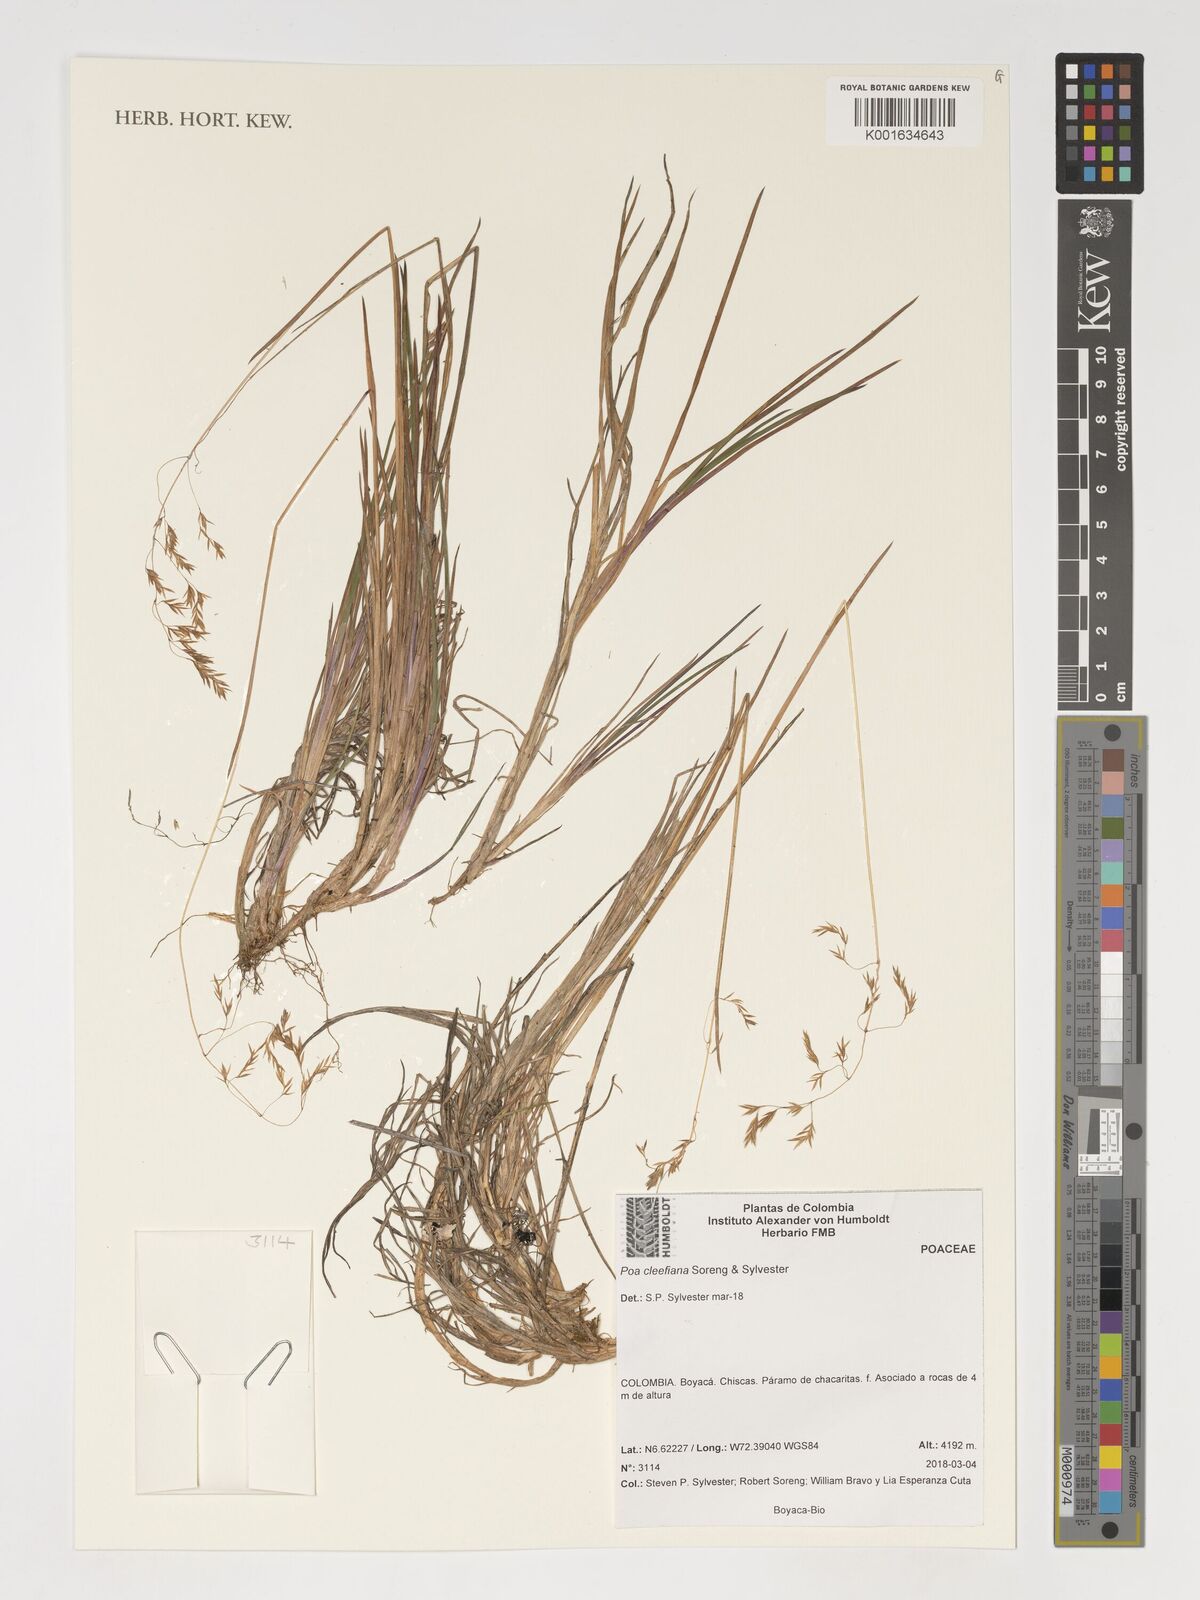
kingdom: Plantae
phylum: Tracheophyta
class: Liliopsida
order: Poales
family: Poaceae
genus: Poa
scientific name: Poa
